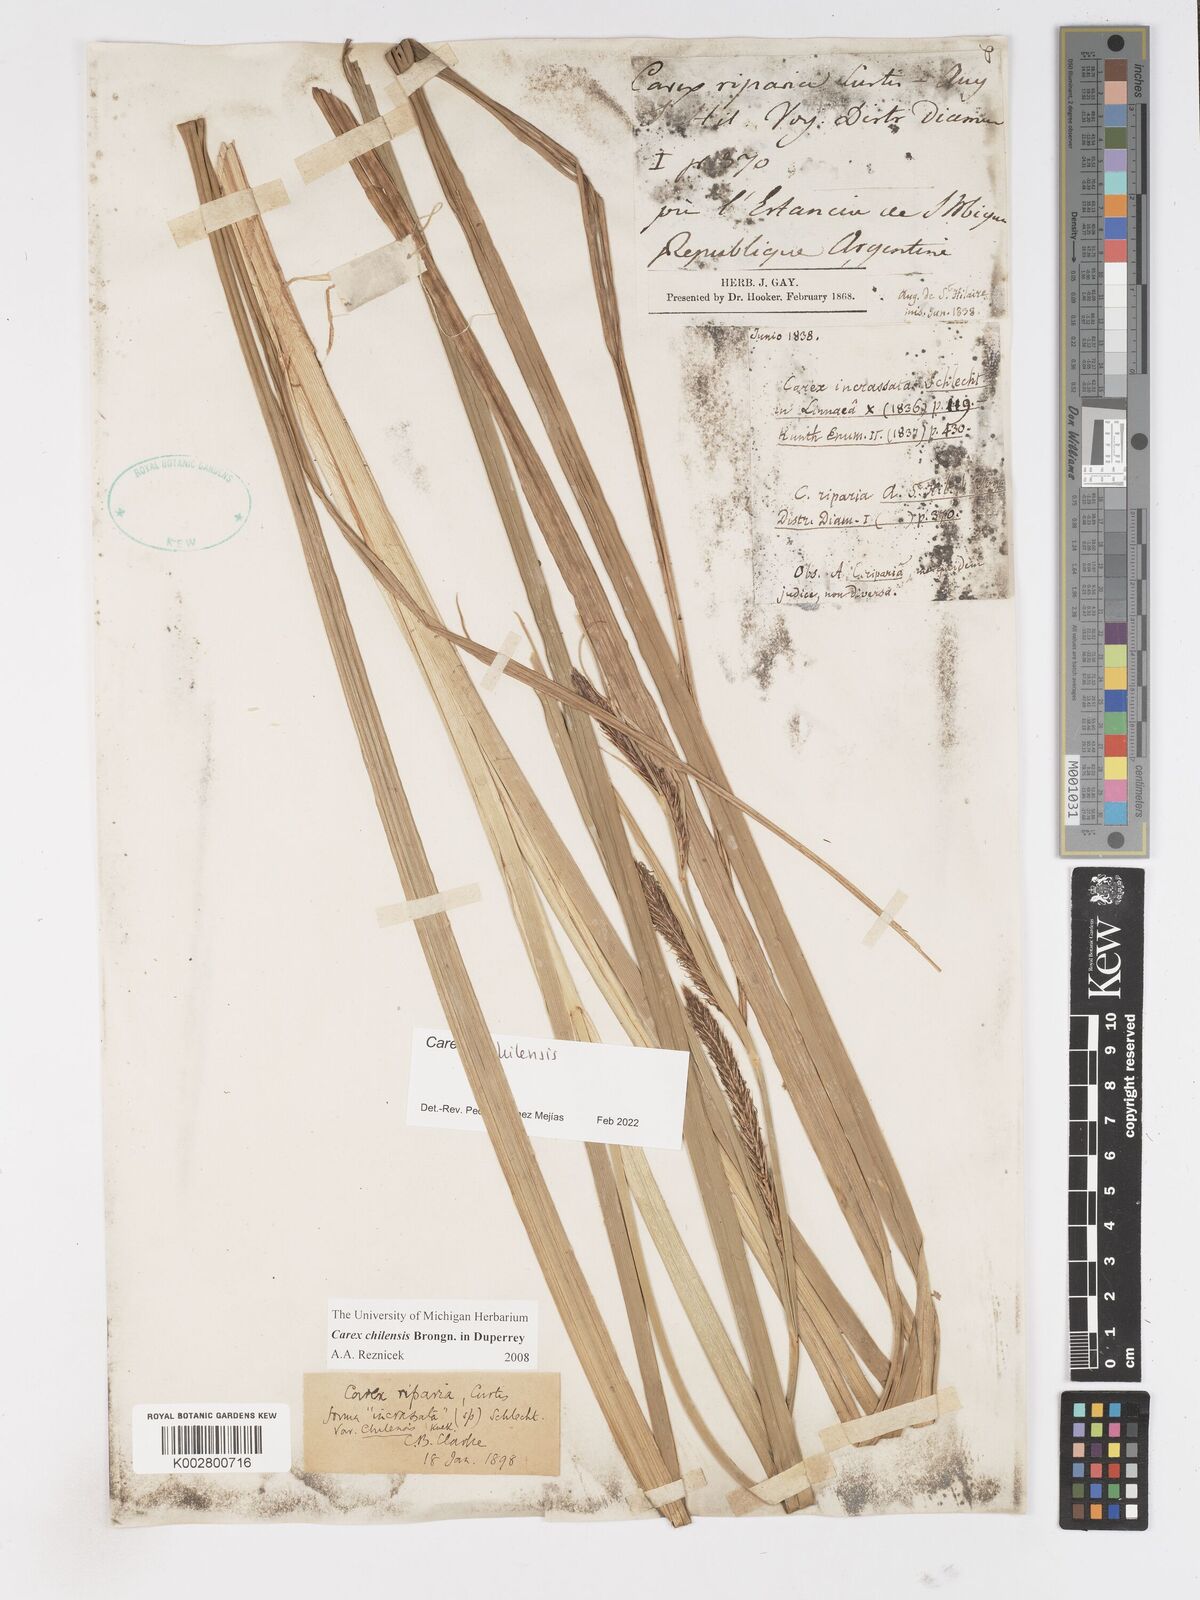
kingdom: Plantae
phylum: Tracheophyta
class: Liliopsida
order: Poales
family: Cyperaceae
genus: Carex
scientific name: Carex chilensis
